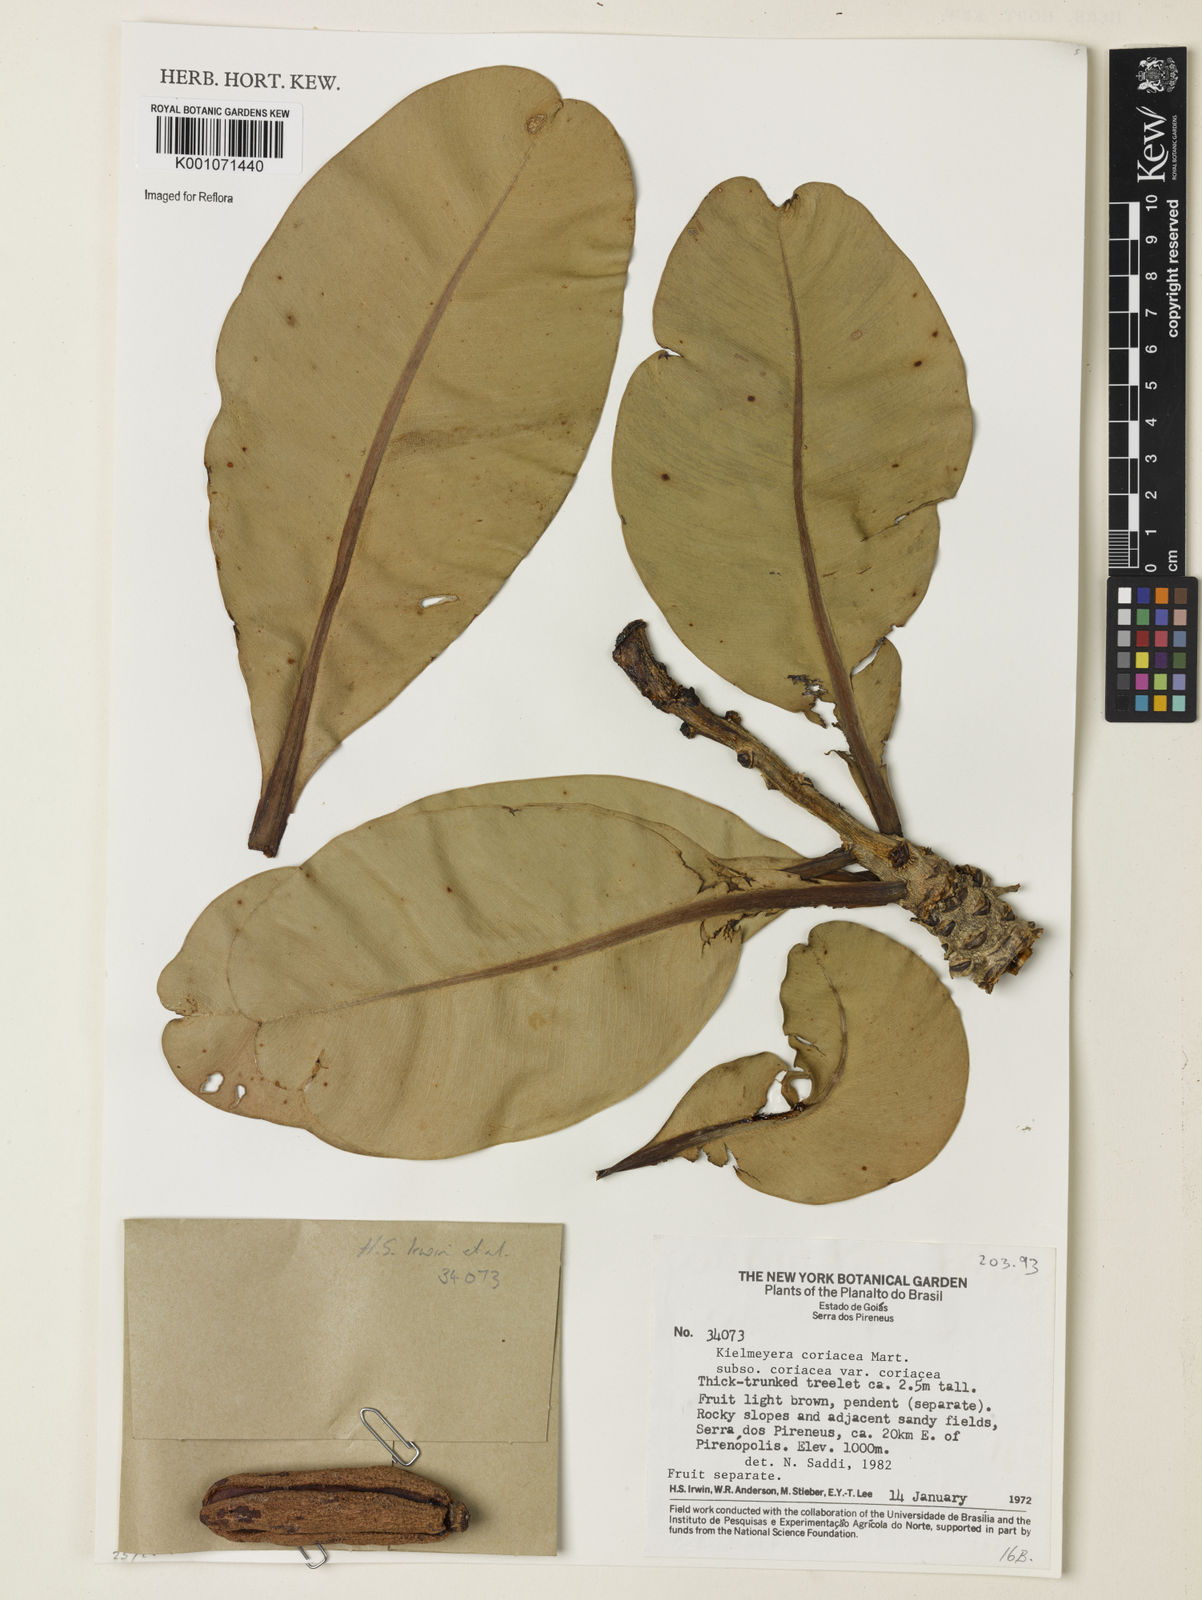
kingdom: Plantae
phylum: Tracheophyta
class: Magnoliopsida
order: Malpighiales
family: Calophyllaceae
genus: Kielmeyera
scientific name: Kielmeyera coriacea
